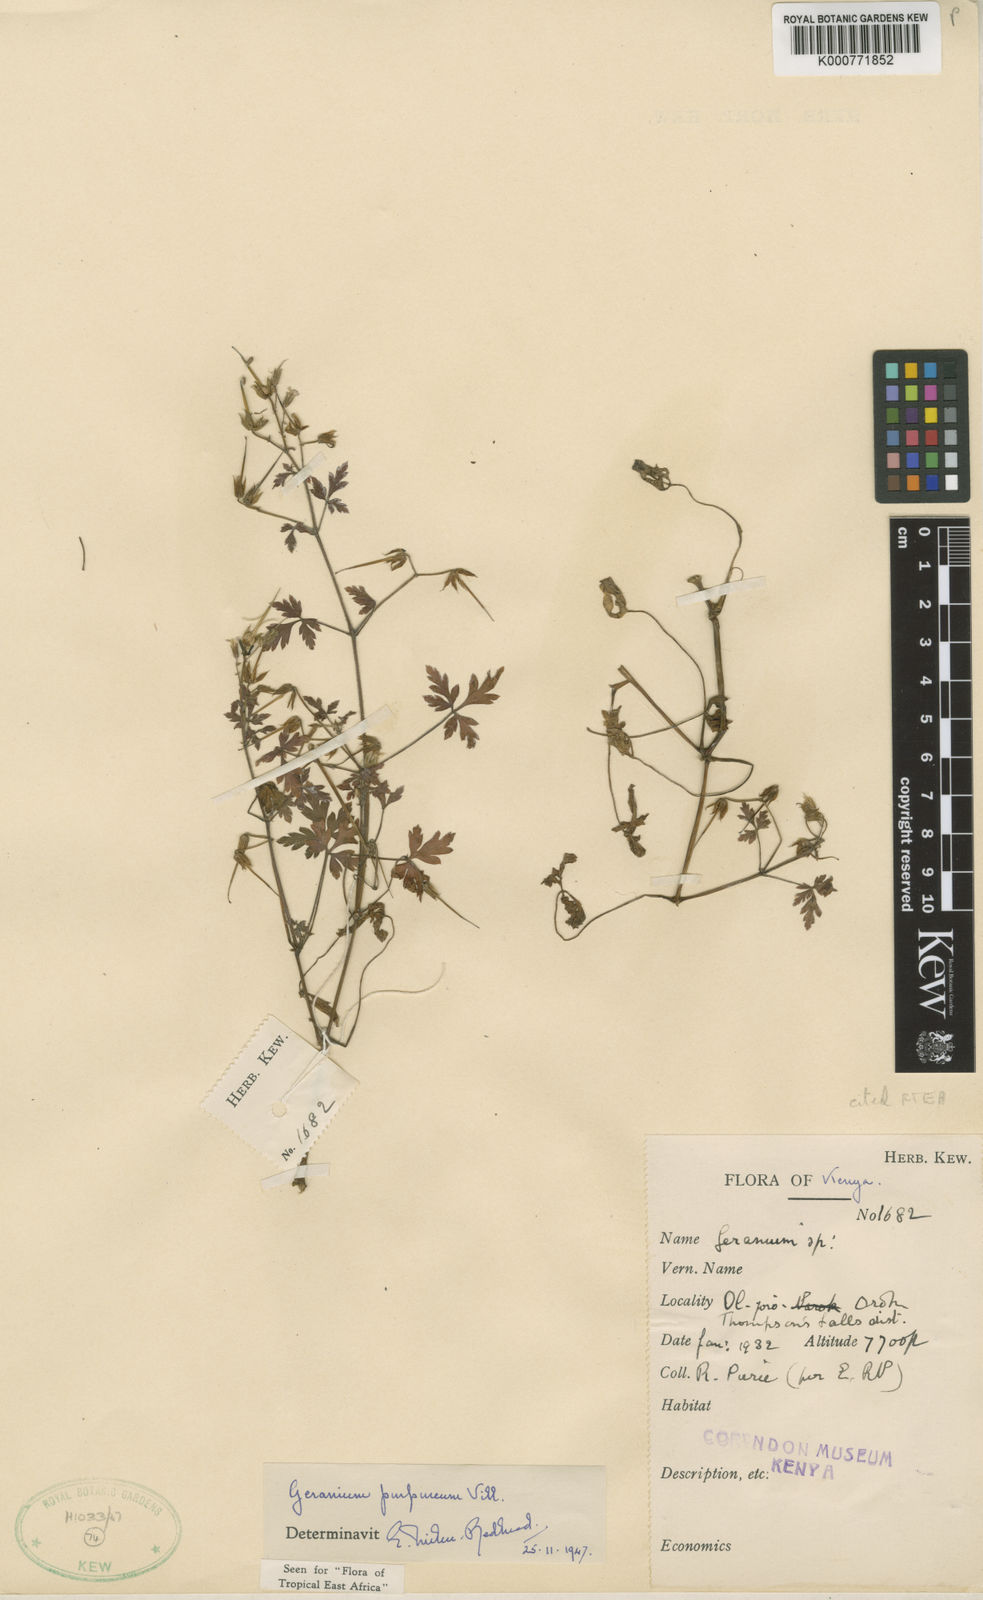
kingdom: Plantae
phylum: Tracheophyta
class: Magnoliopsida
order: Geraniales
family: Geraniaceae
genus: Geranium
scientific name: Geranium purpureum
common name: Little-robin
